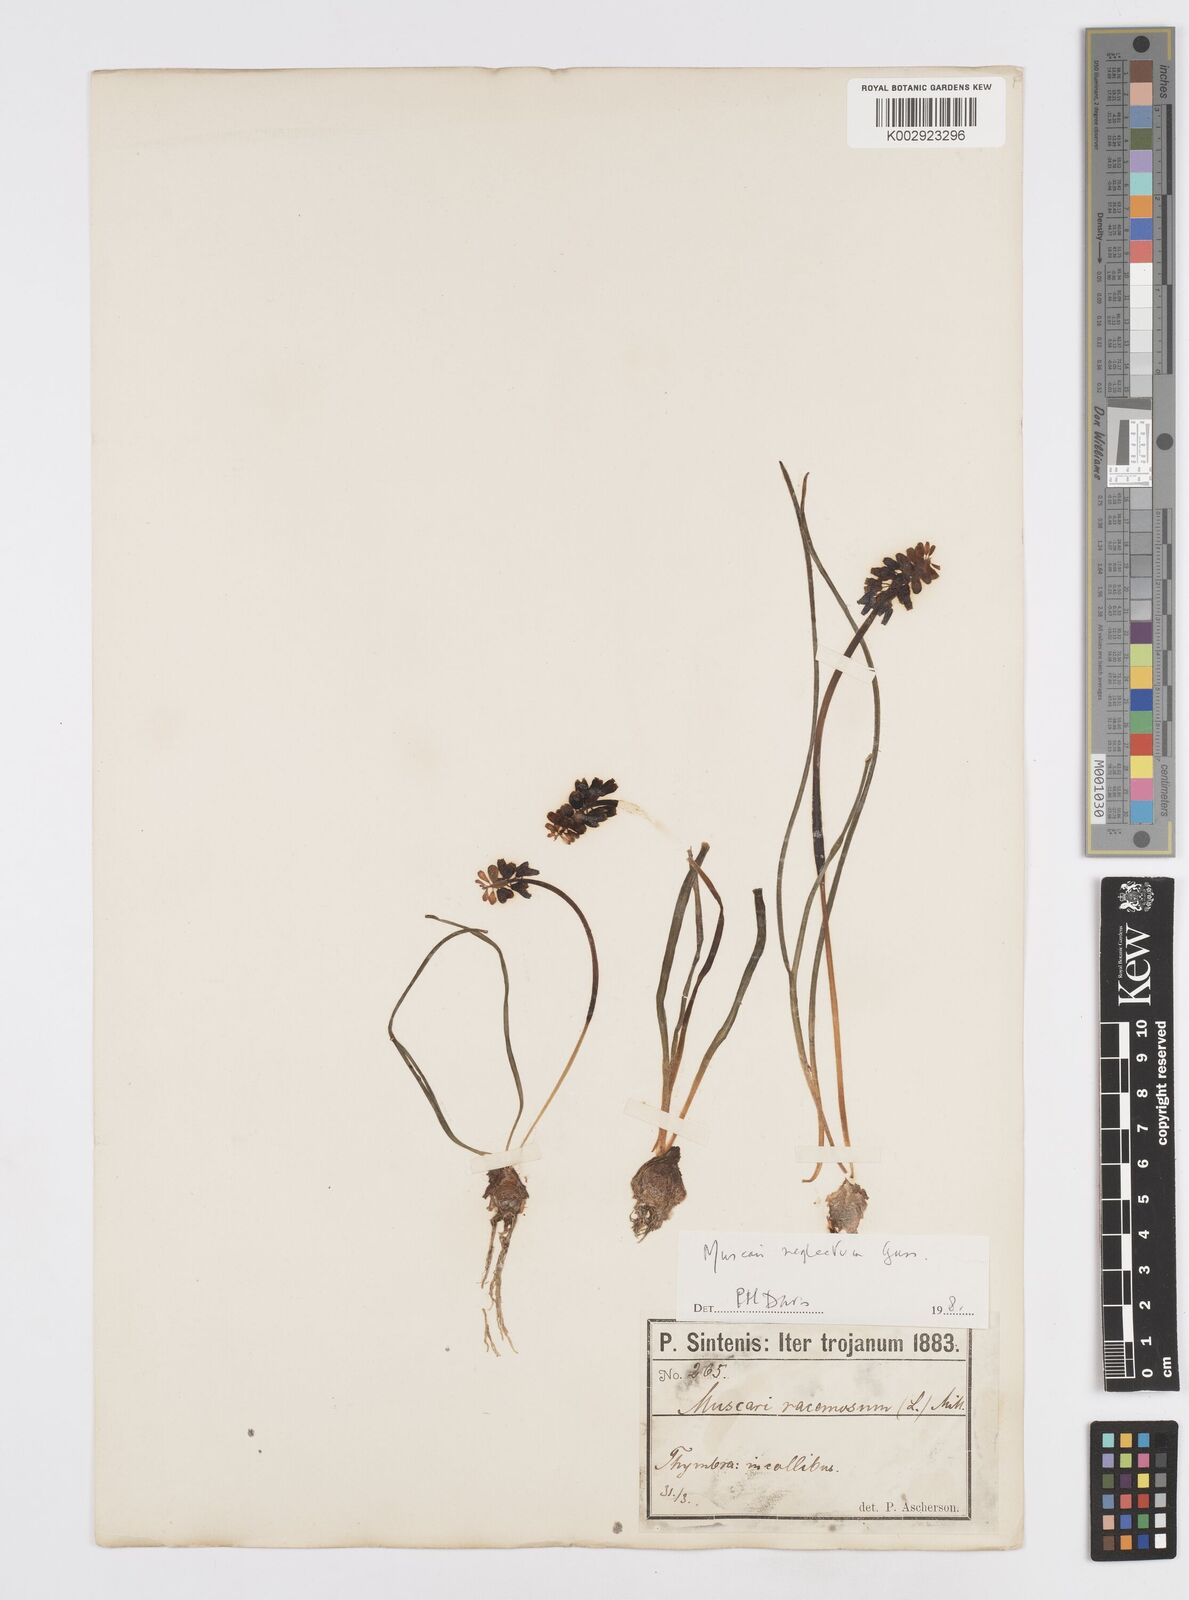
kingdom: Plantae
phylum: Tracheophyta
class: Liliopsida
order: Asparagales
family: Asparagaceae
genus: Muscari
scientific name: Muscari neglectum
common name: Grape-hyacinth
